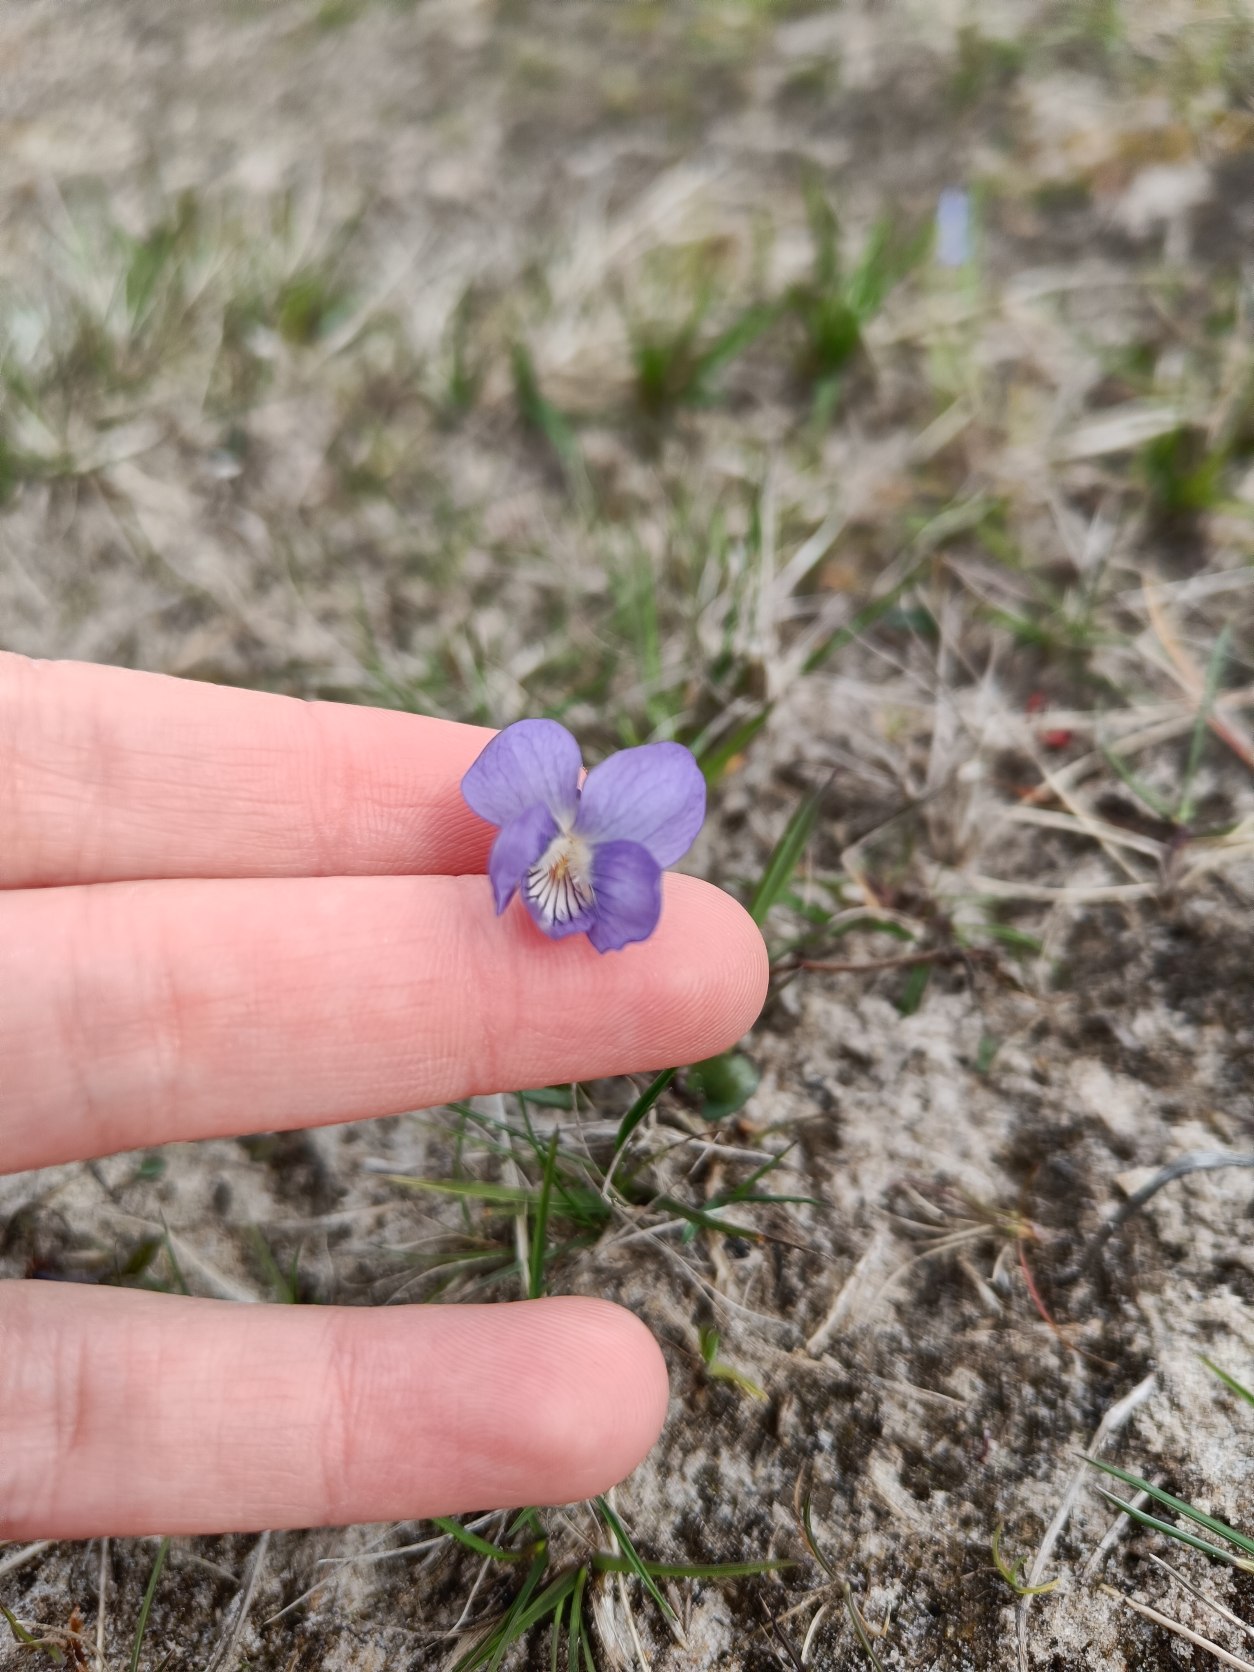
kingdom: Plantae
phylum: Tracheophyta
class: Magnoliopsida
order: Malpighiales
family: Violaceae
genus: Viola
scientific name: Viola canina
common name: Hunde-viol
